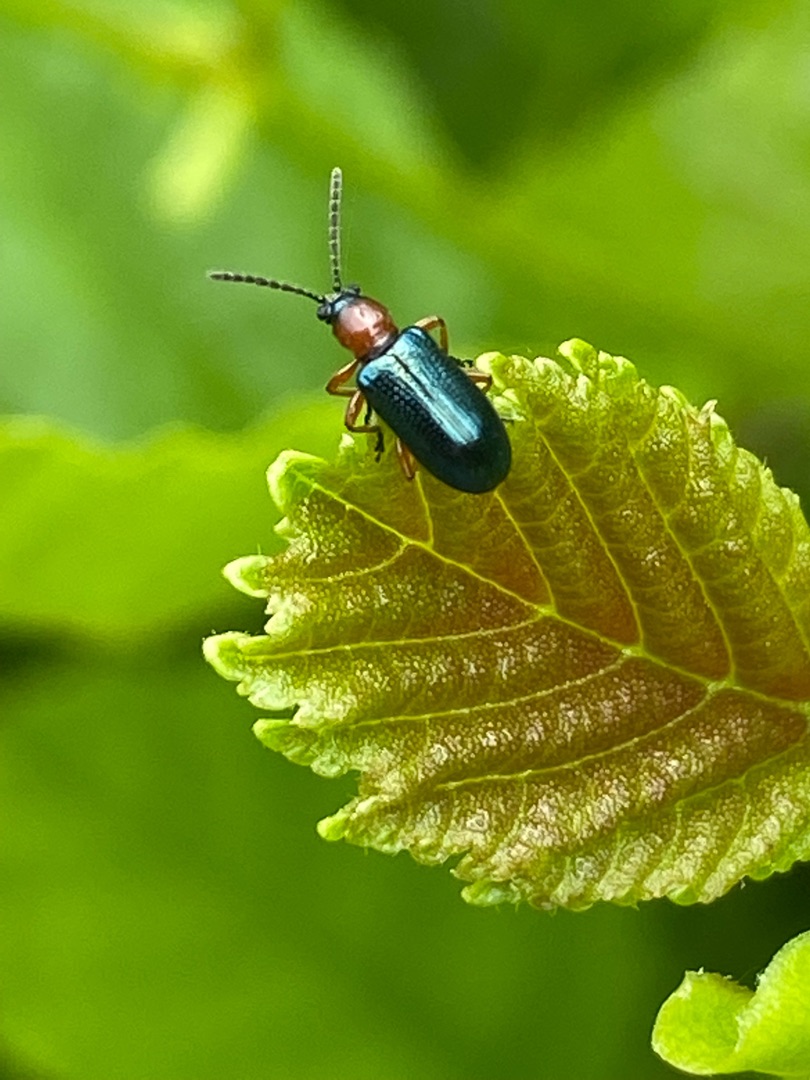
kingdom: Animalia
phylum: Arthropoda
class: Insecta
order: Coleoptera
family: Chrysomelidae
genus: Oulema
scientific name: Oulema
